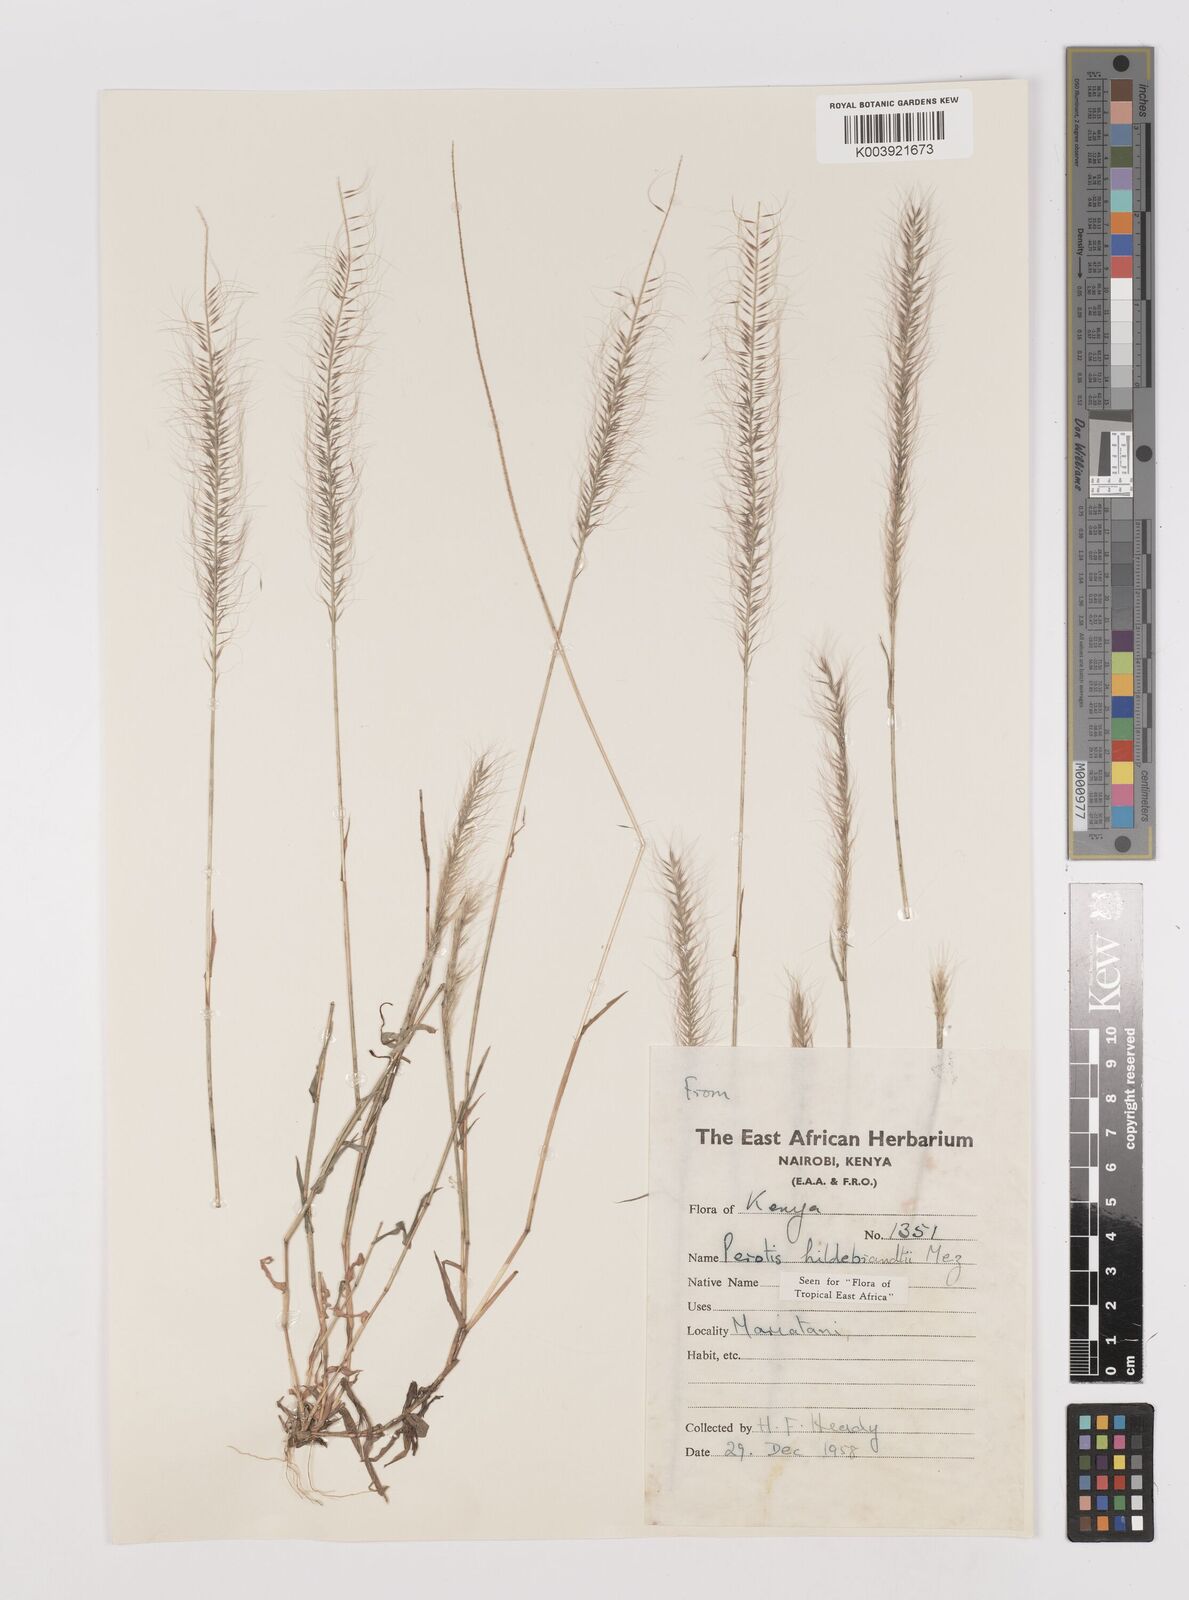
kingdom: Plantae
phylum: Tracheophyta
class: Liliopsida
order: Poales
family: Poaceae
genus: Perotis
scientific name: Perotis hildebrandtii
